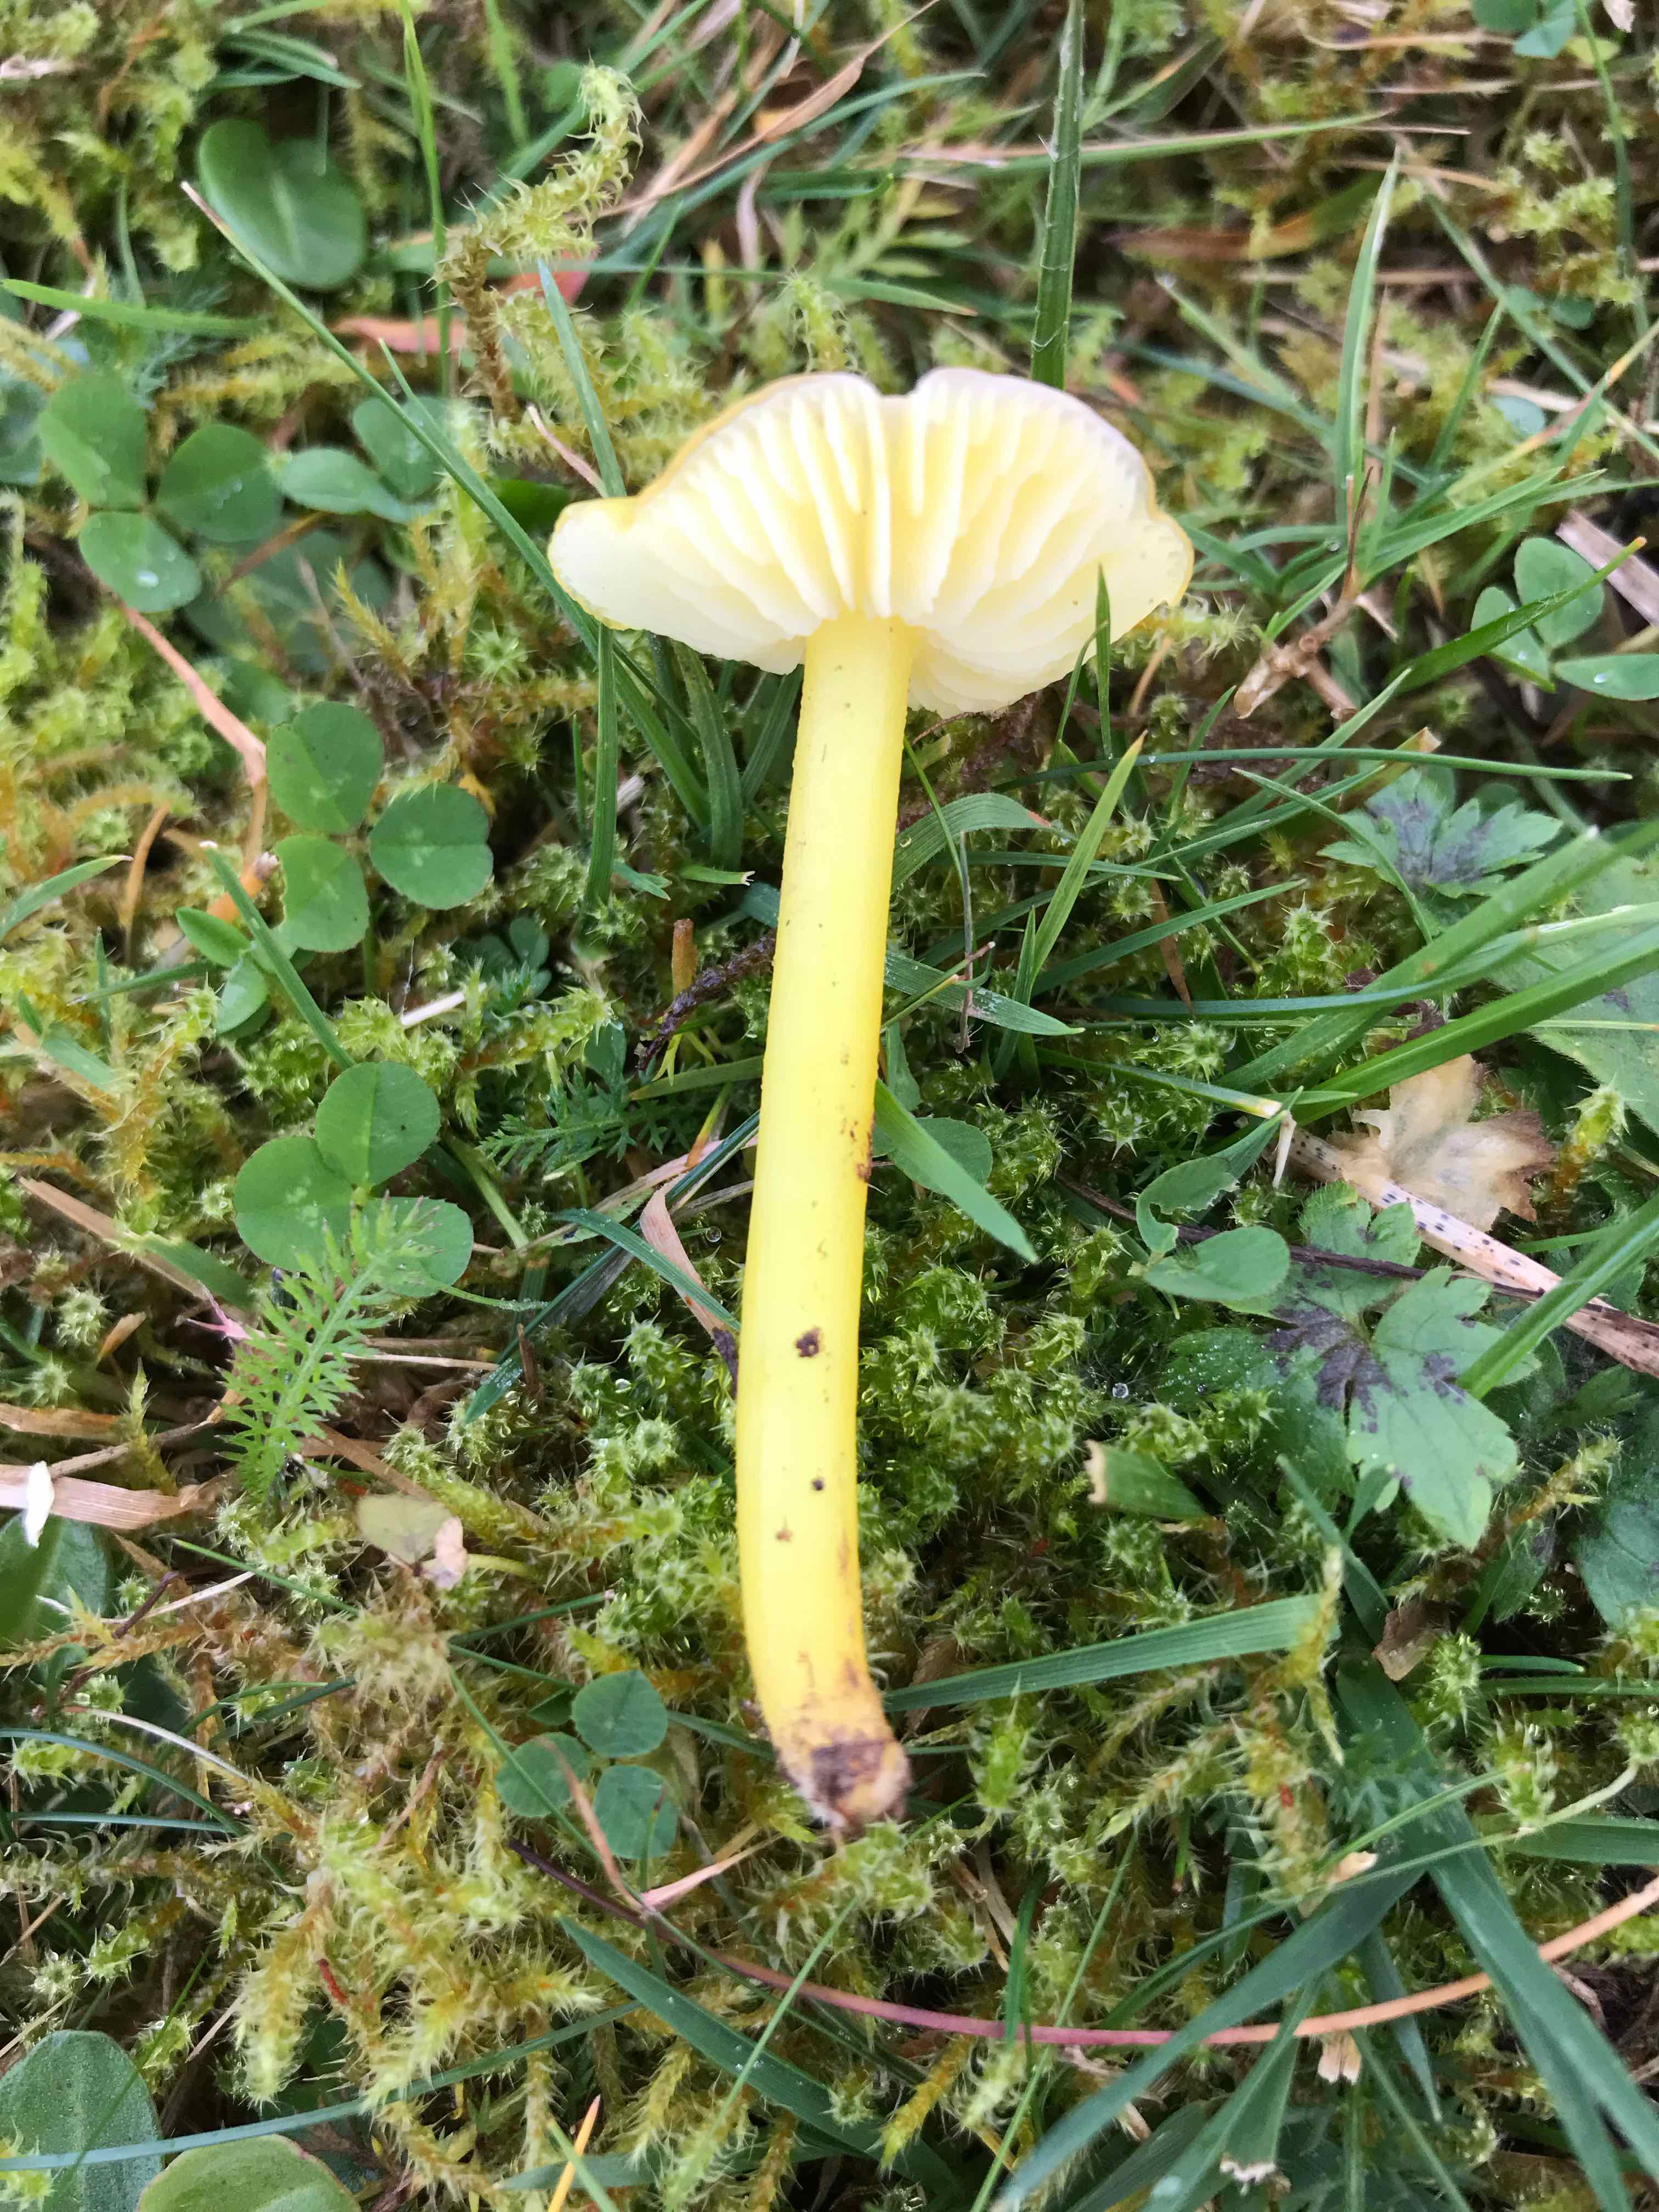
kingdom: Fungi
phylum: Basidiomycota
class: Agaricomycetes
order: Agaricales
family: Hygrophoraceae
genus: Hygrocybe
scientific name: Hygrocybe chlorophana
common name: gul vokshat
